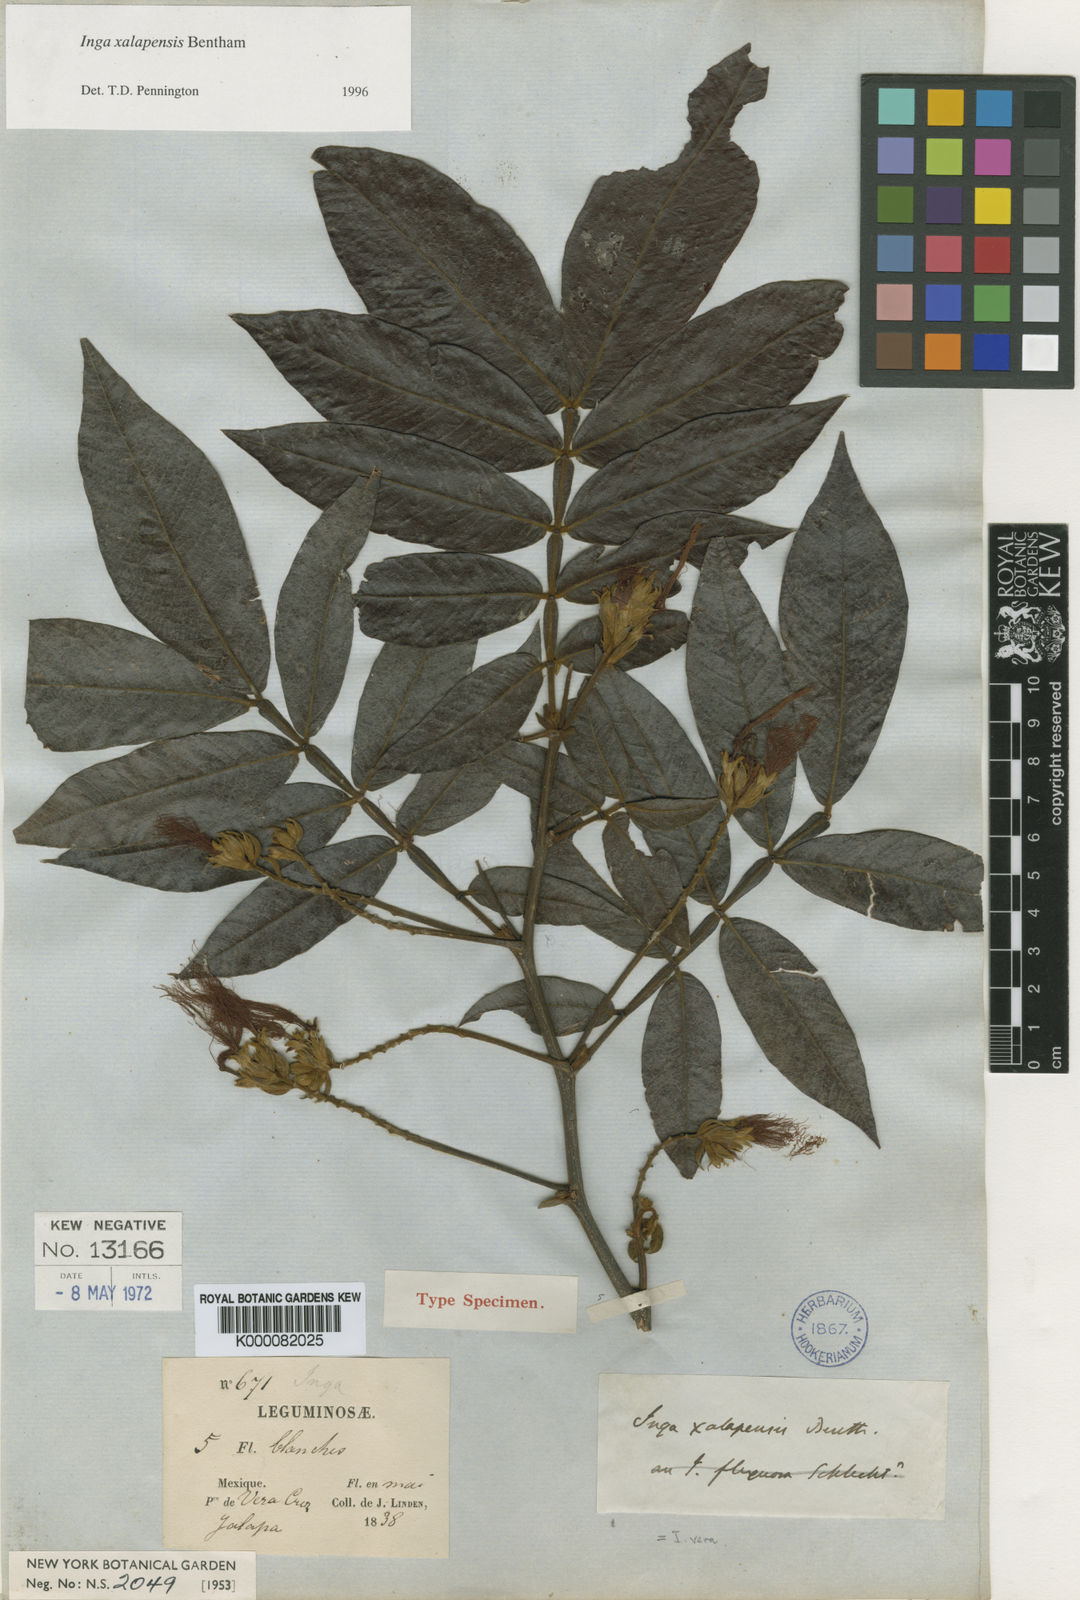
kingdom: Plantae
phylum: Tracheophyta
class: Magnoliopsida
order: Fabales
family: Fabaceae
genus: Inga
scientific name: Inga xalapensis
